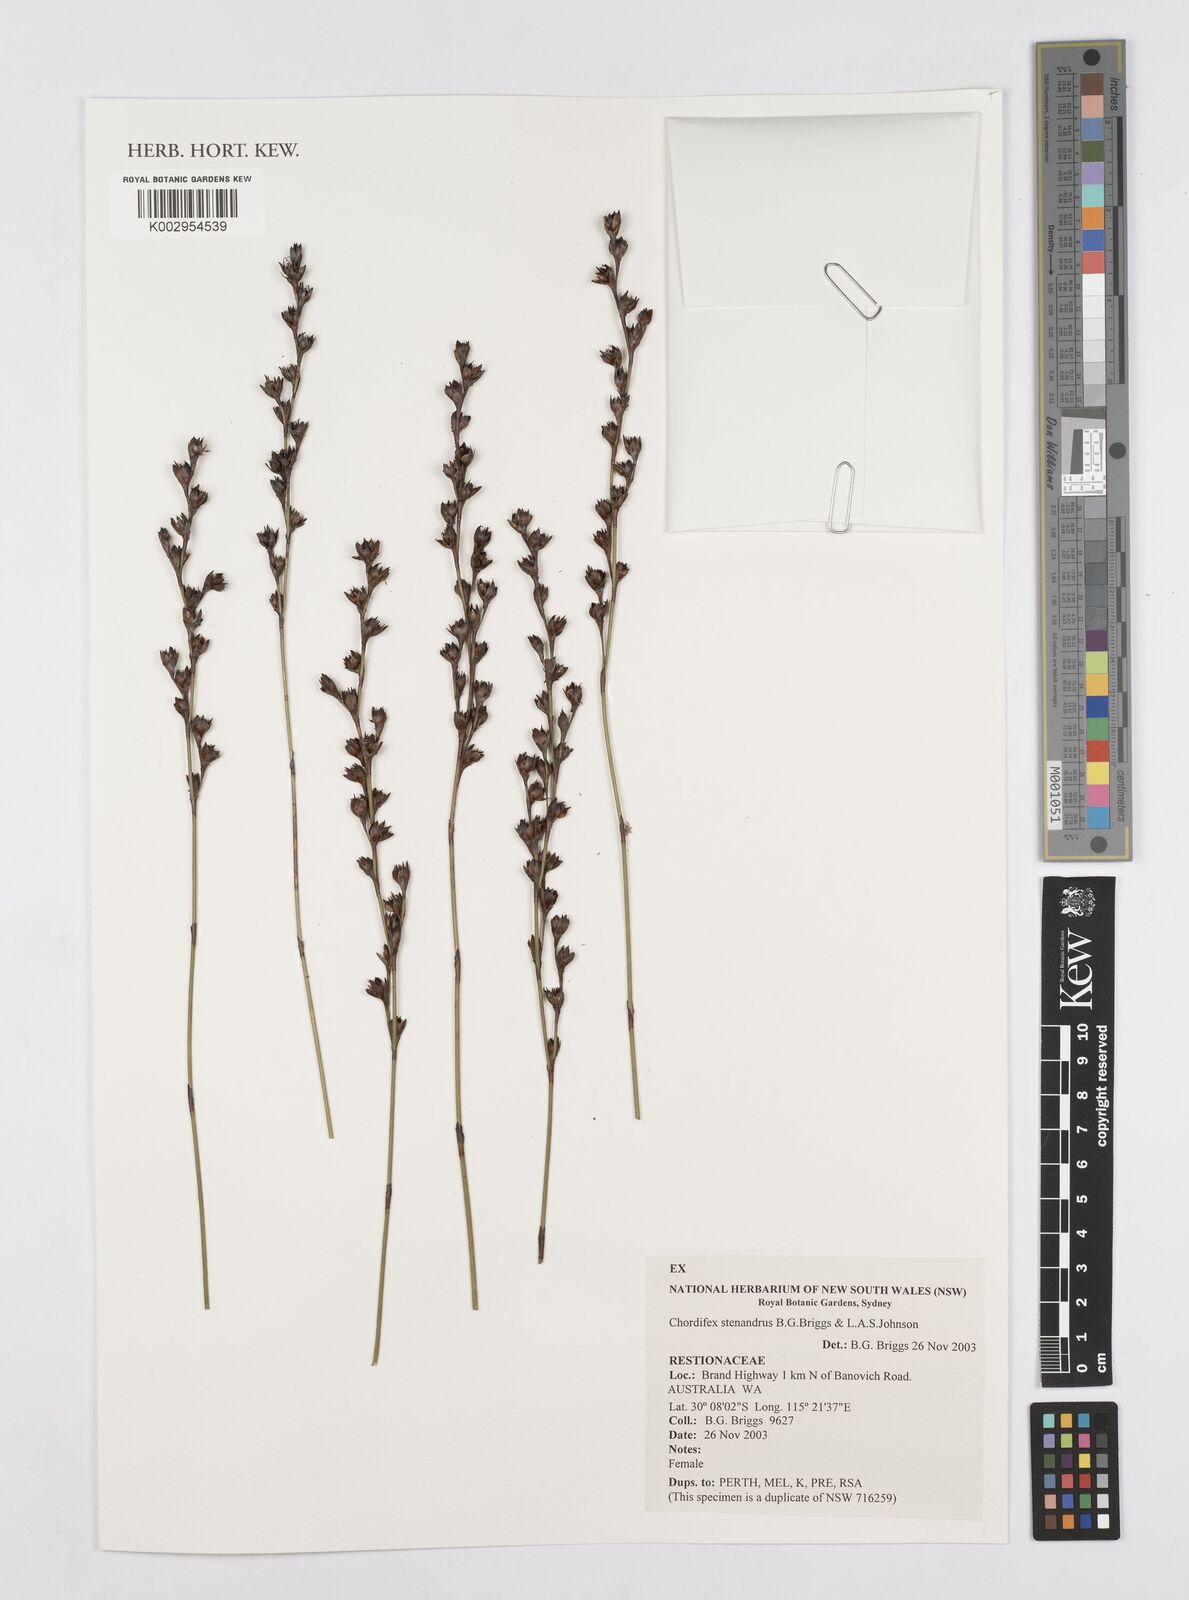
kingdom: Plantae
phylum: Tracheophyta
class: Liliopsida
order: Poales
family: Restionaceae
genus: Chordifex
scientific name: Chordifex stenandrus
